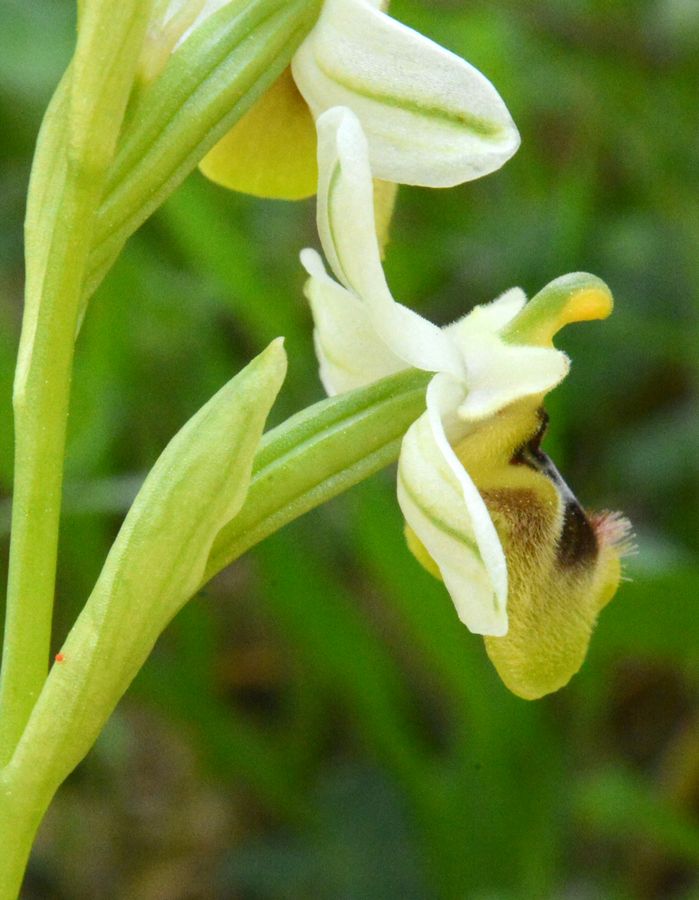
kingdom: Plantae
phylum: Tracheophyta
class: Liliopsida
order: Asparagales
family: Orchidaceae
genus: Ophrys
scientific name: Ophrys tenthredinifera
